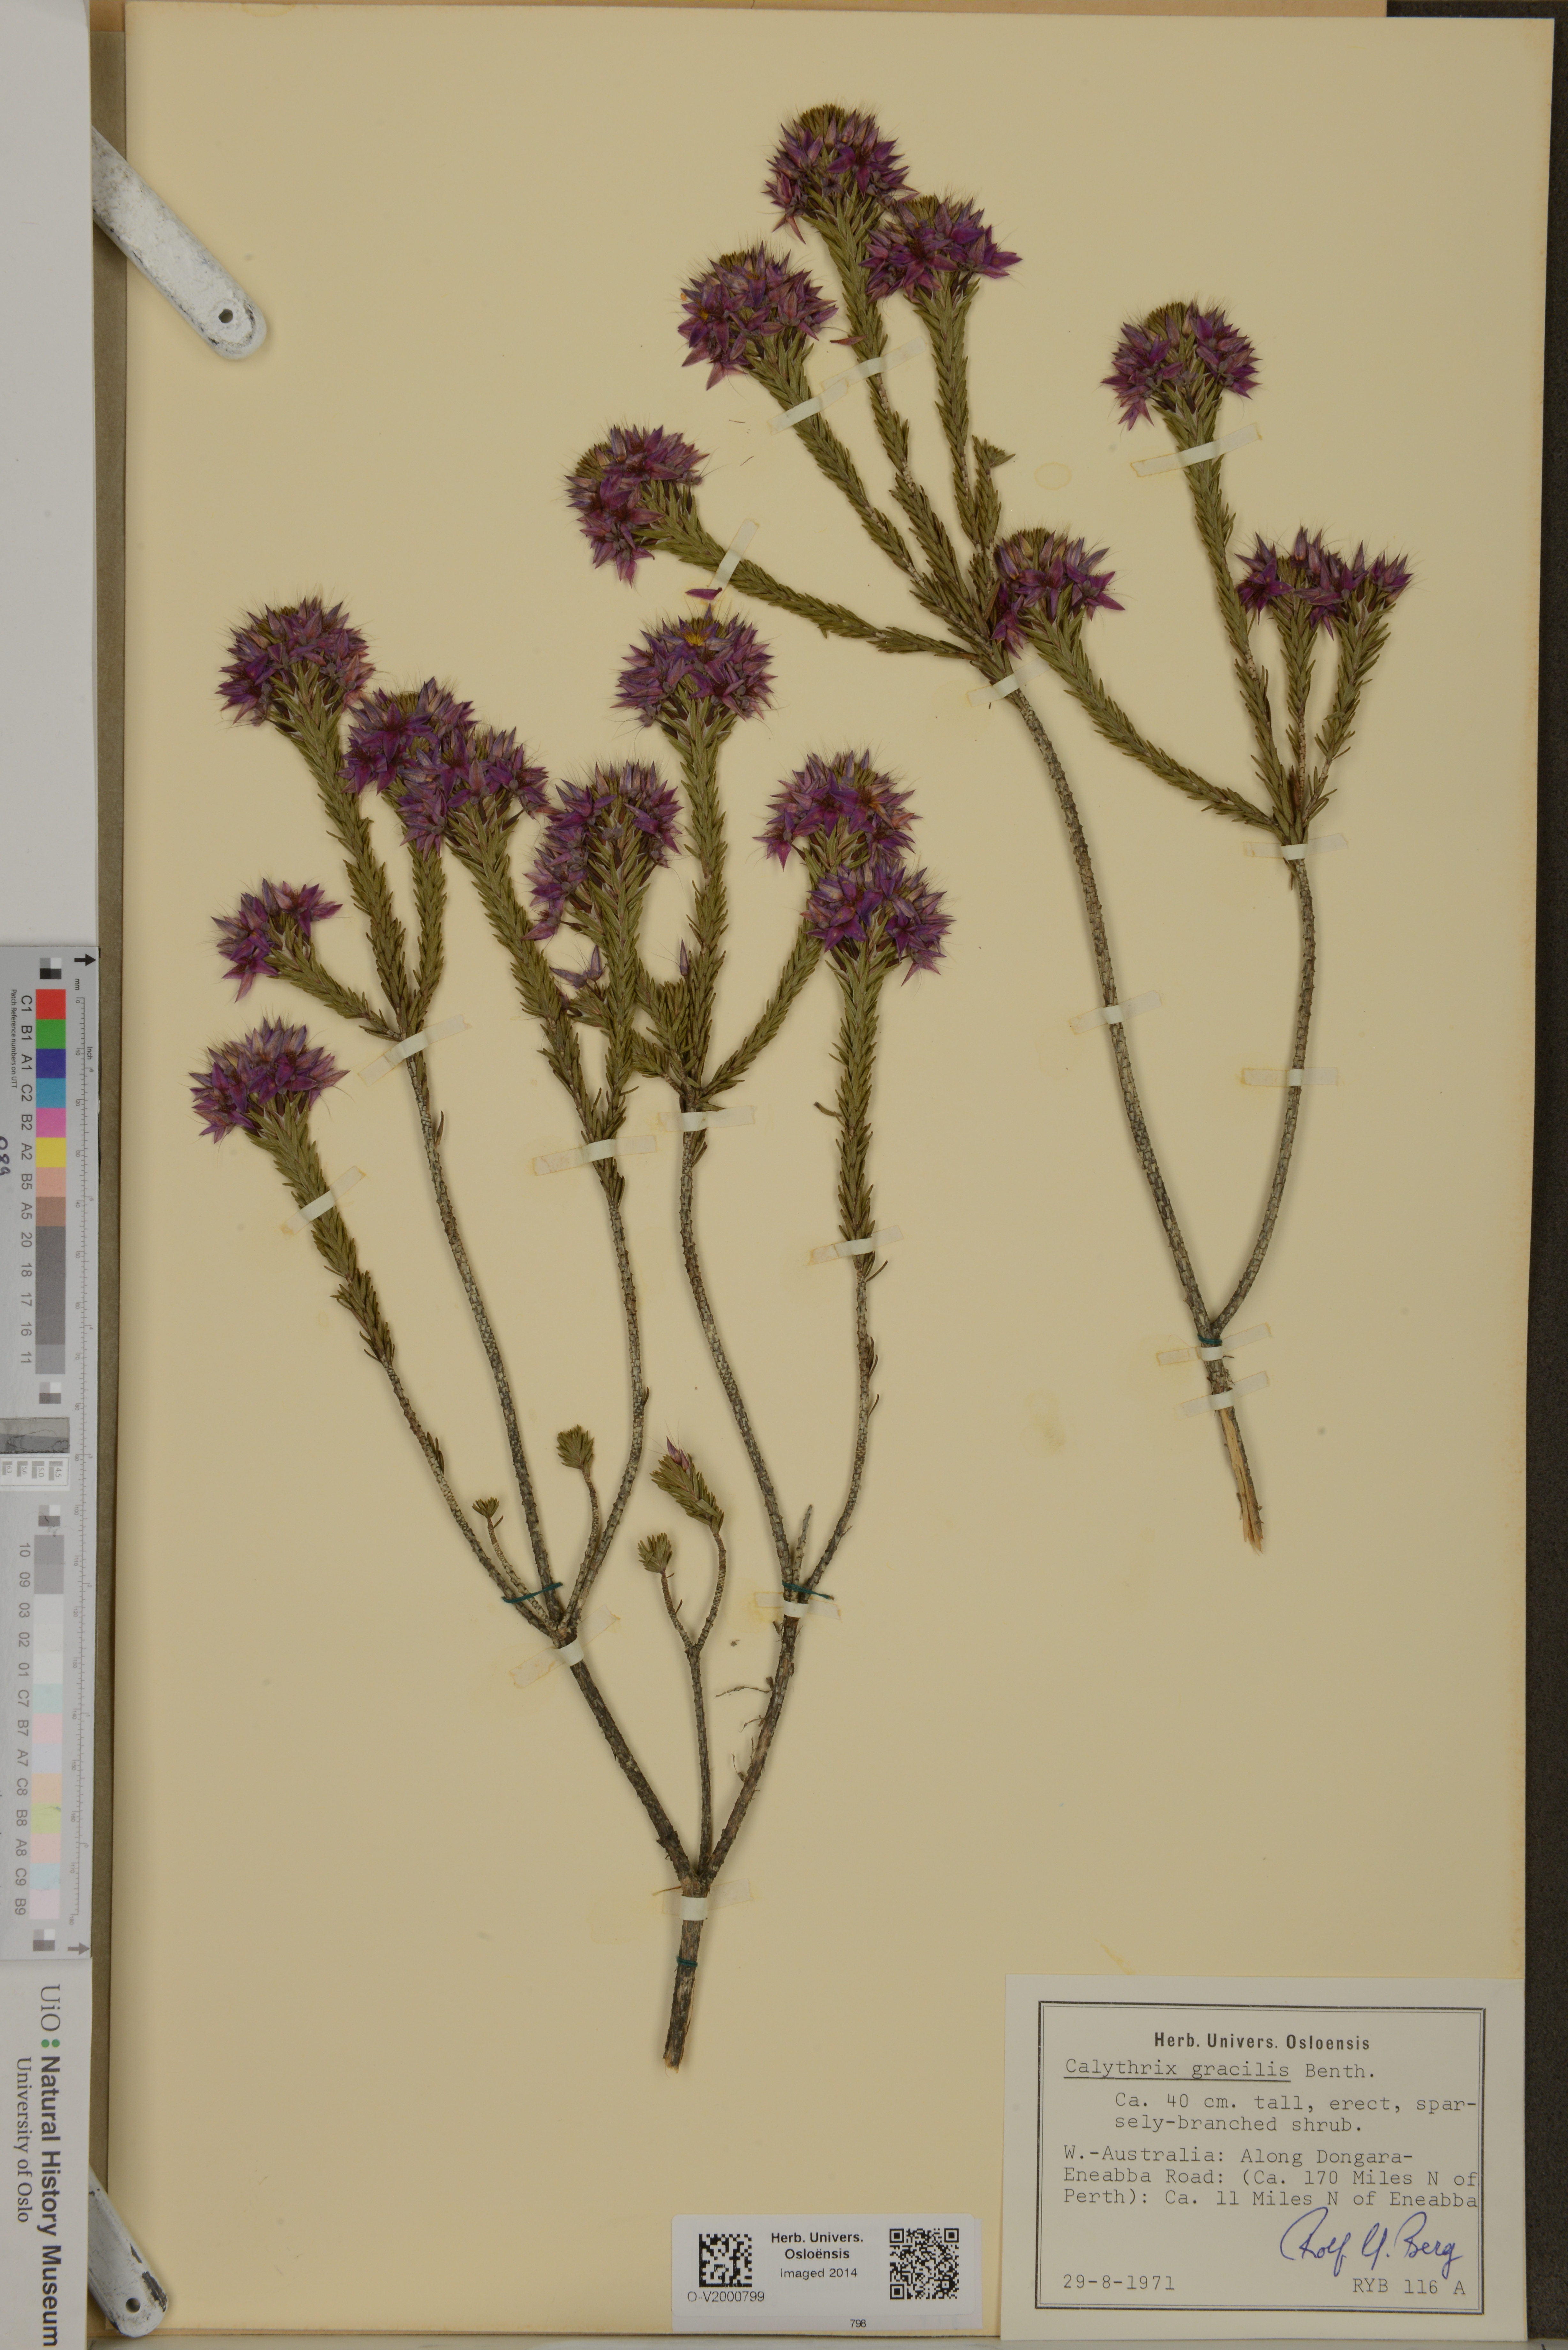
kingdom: Plantae
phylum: Tracheophyta
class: Magnoliopsida
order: Myrtales
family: Myrtaceae
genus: Calytrix
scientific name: Calytrix
